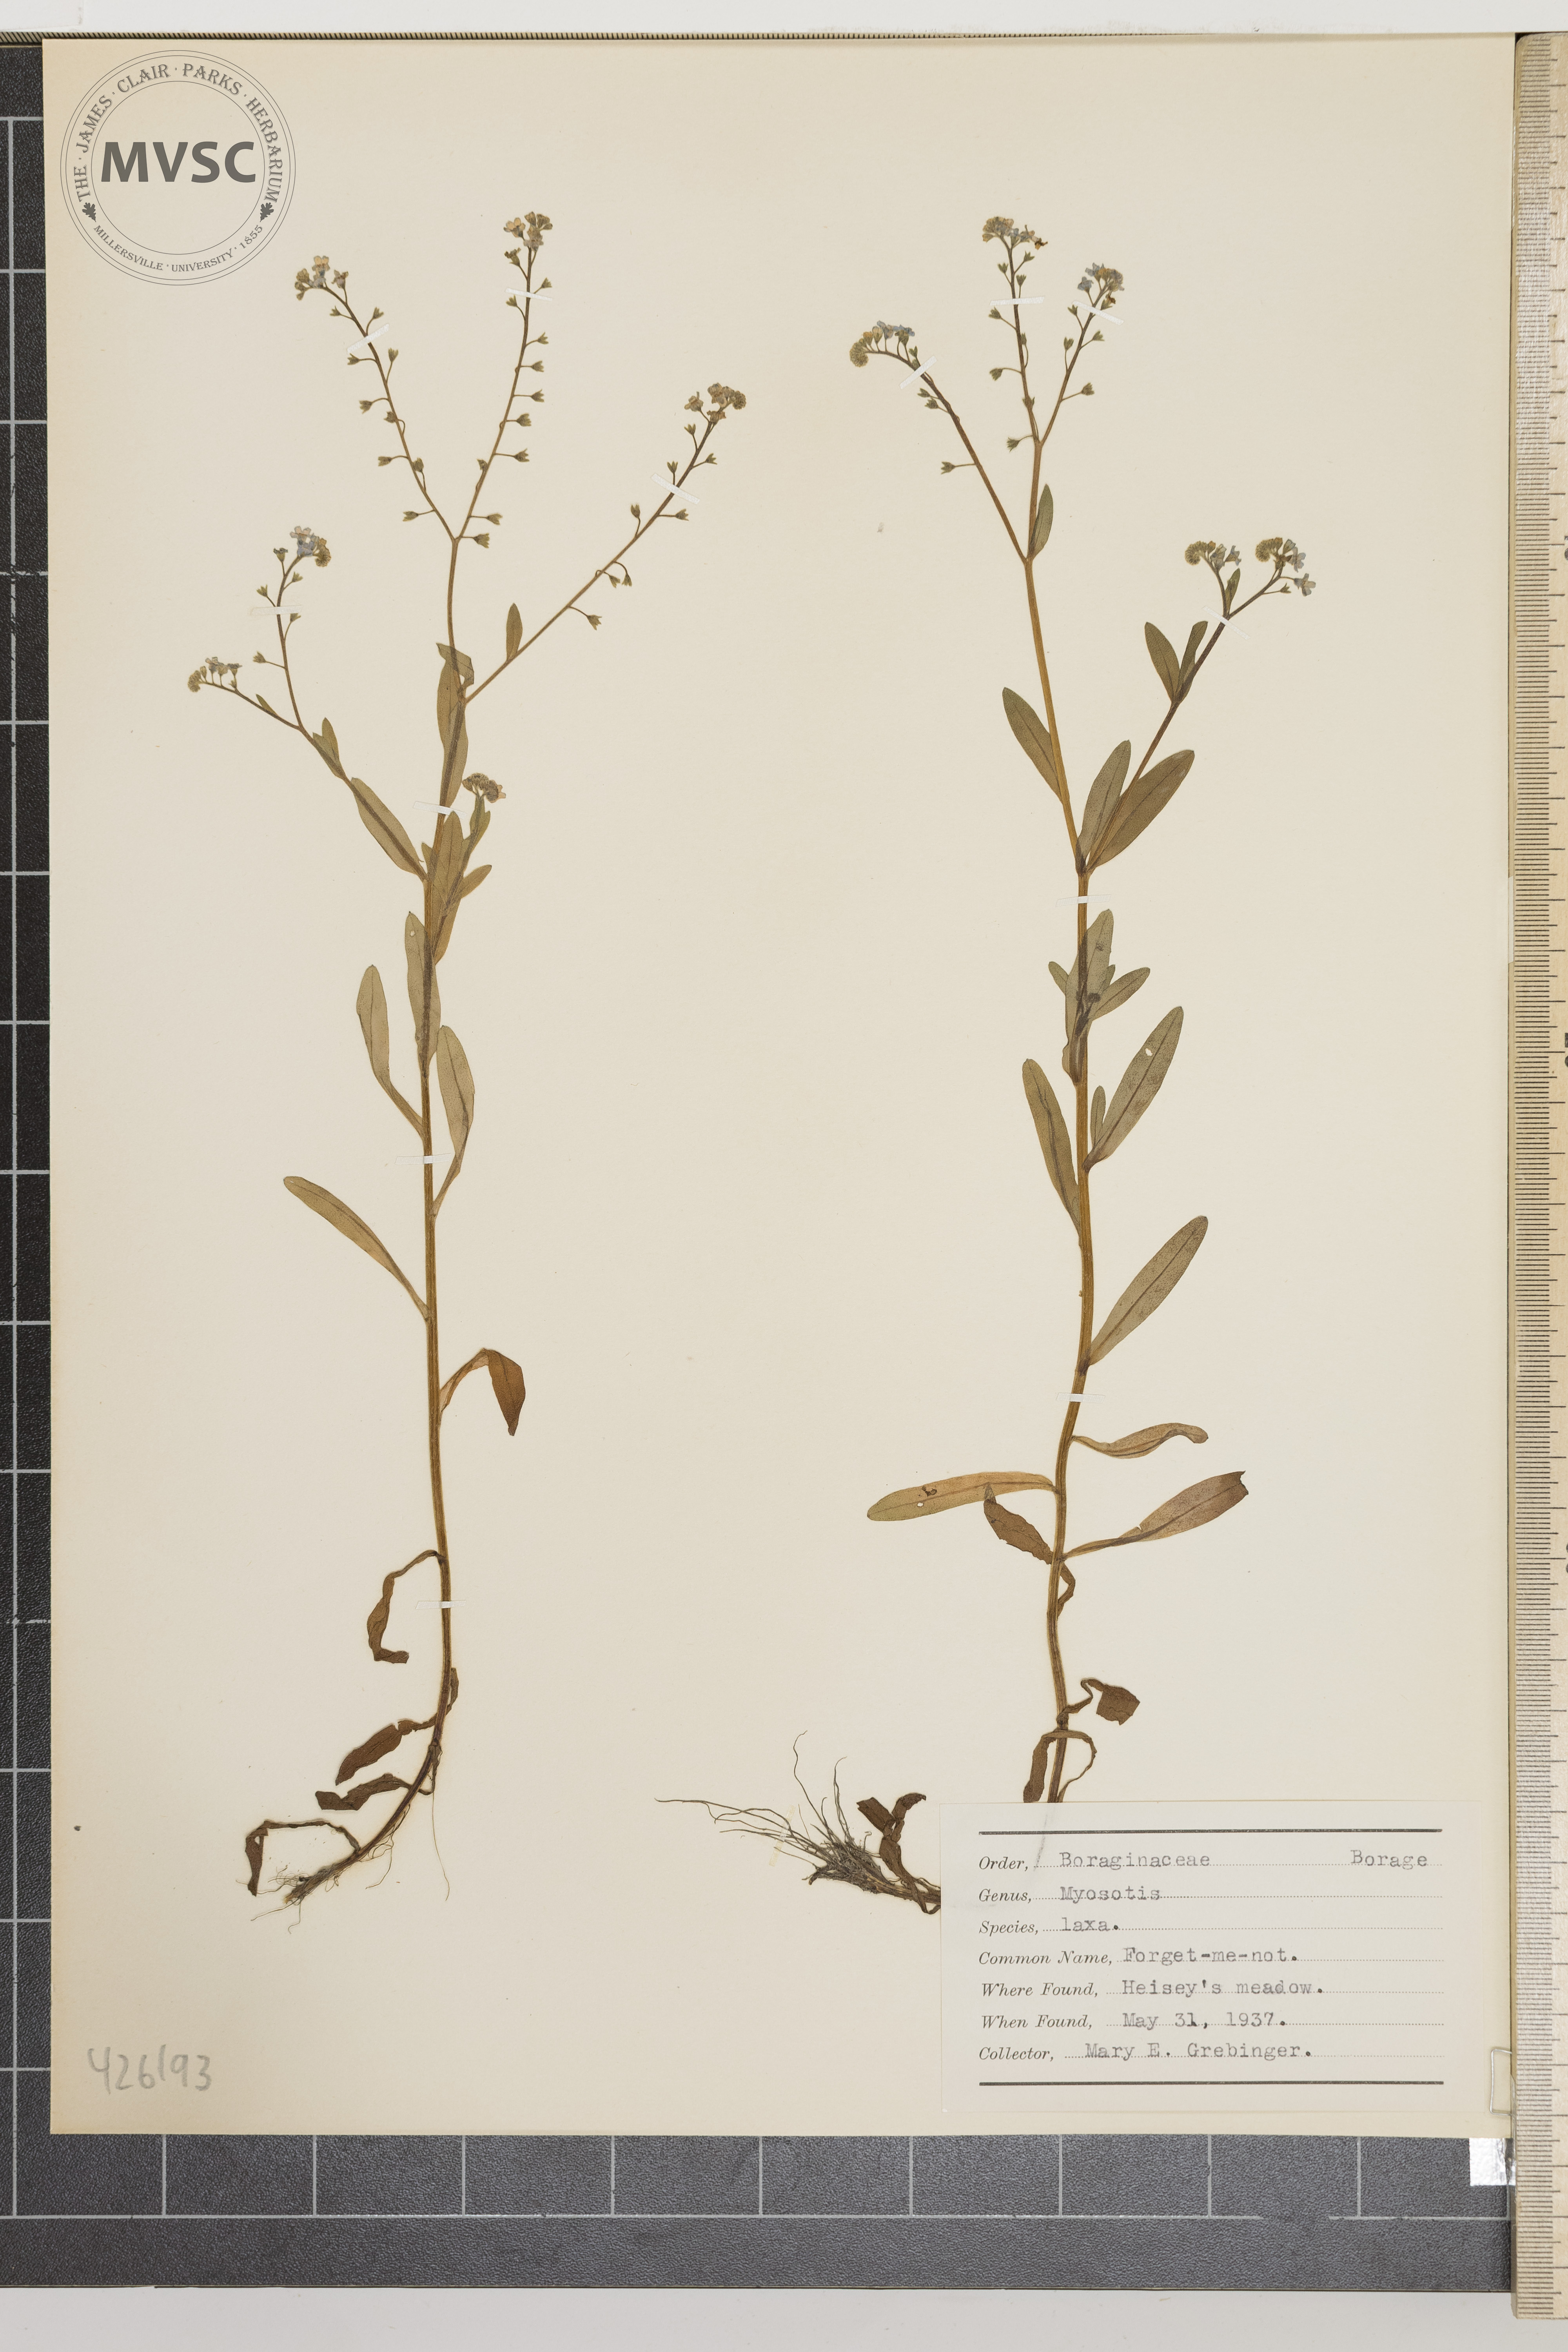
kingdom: Plantae
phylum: Tracheophyta
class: Magnoliopsida
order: Boraginales
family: Boraginaceae
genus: Myosotis
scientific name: Myosotis laxa
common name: Forget-me-not
